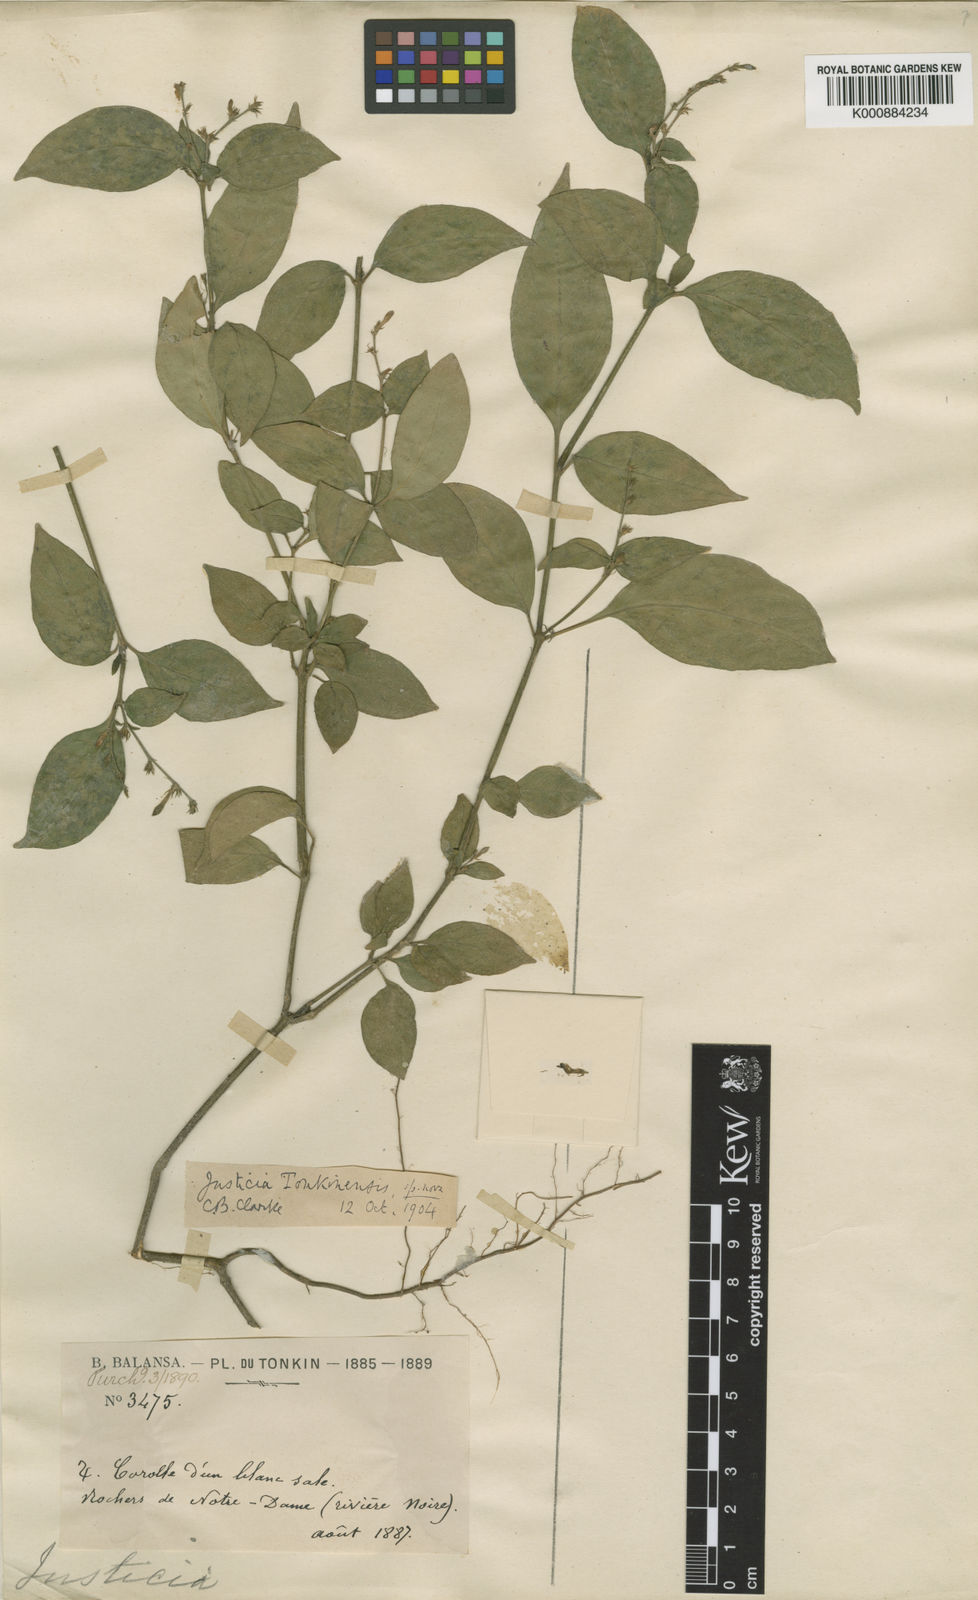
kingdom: Plantae
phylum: Tracheophyta
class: Magnoliopsida
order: Lamiales
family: Acanthaceae
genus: Justicia
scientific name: Justicia
